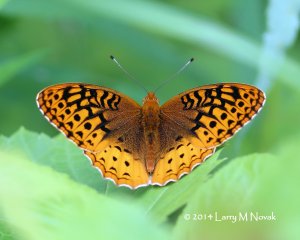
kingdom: Animalia
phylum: Arthropoda
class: Insecta
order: Lepidoptera
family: Nymphalidae
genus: Speyeria
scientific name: Speyeria cybele
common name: Great Spangled Fritillary
